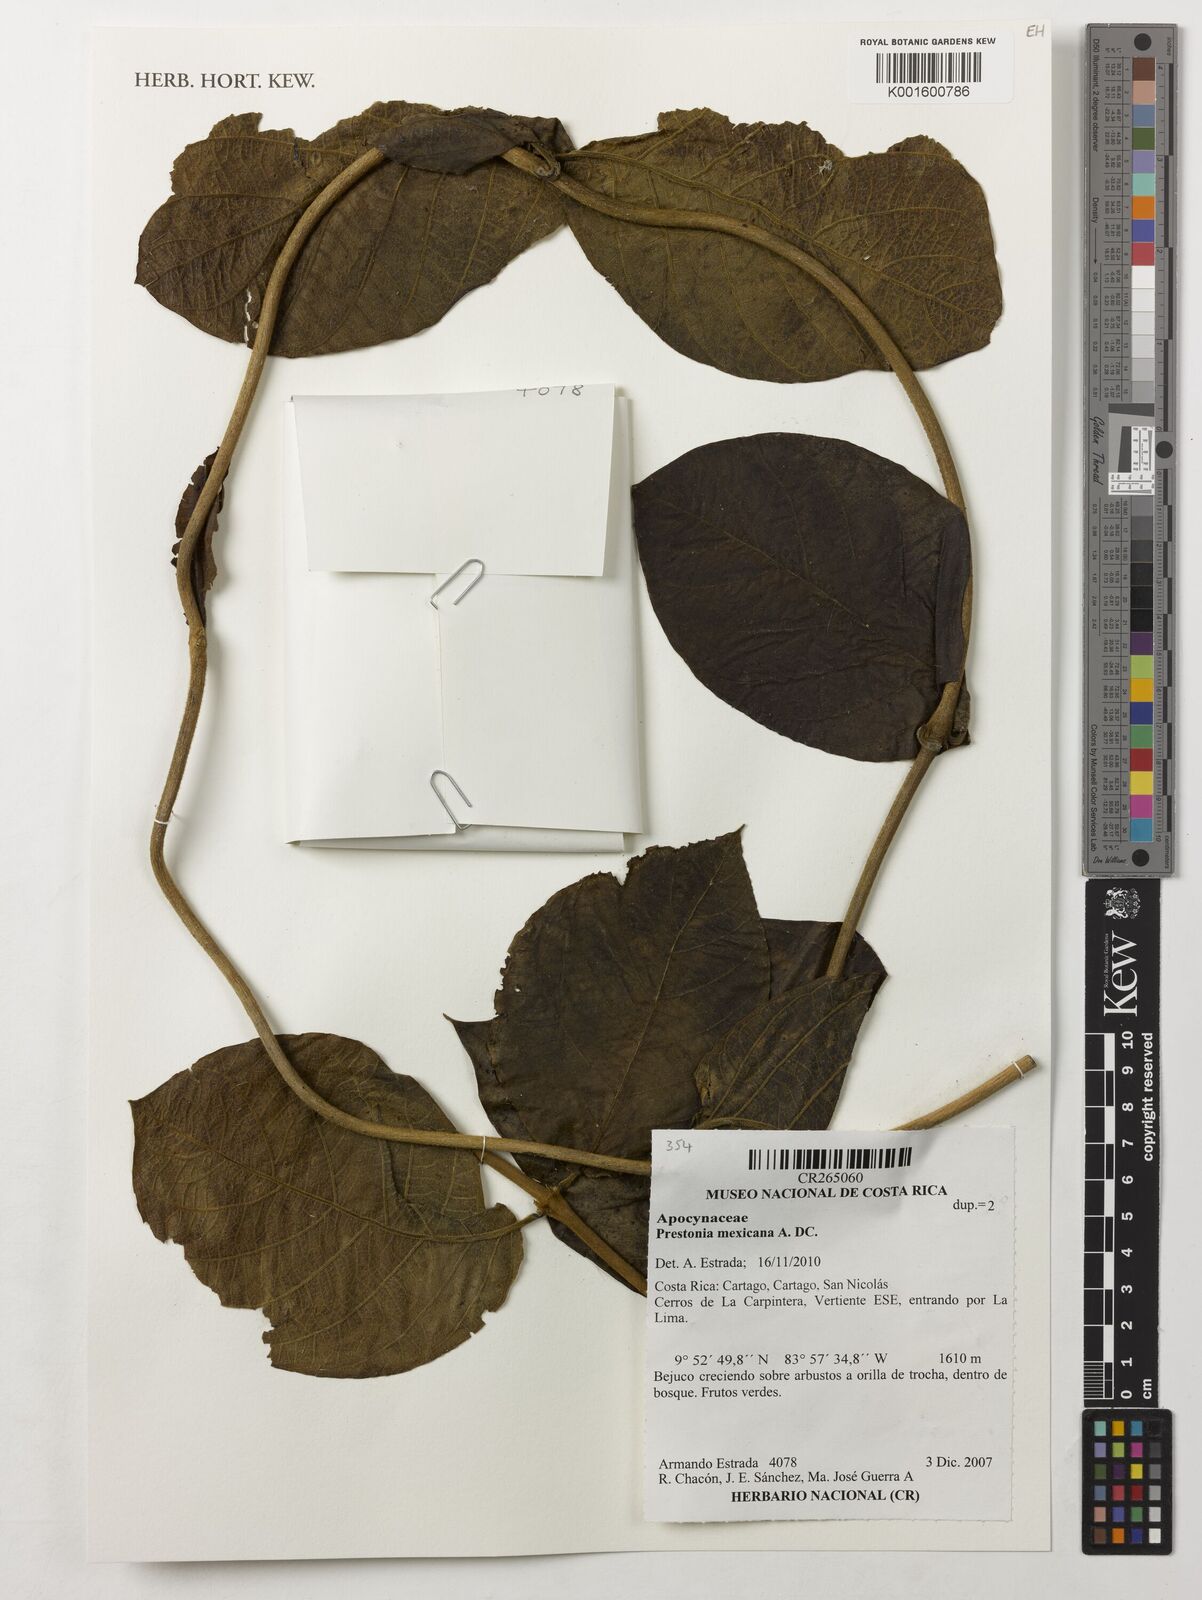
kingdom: Plantae
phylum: Tracheophyta
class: Magnoliopsida
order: Gentianales
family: Apocynaceae
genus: Prestonia
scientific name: Prestonia mexicana
